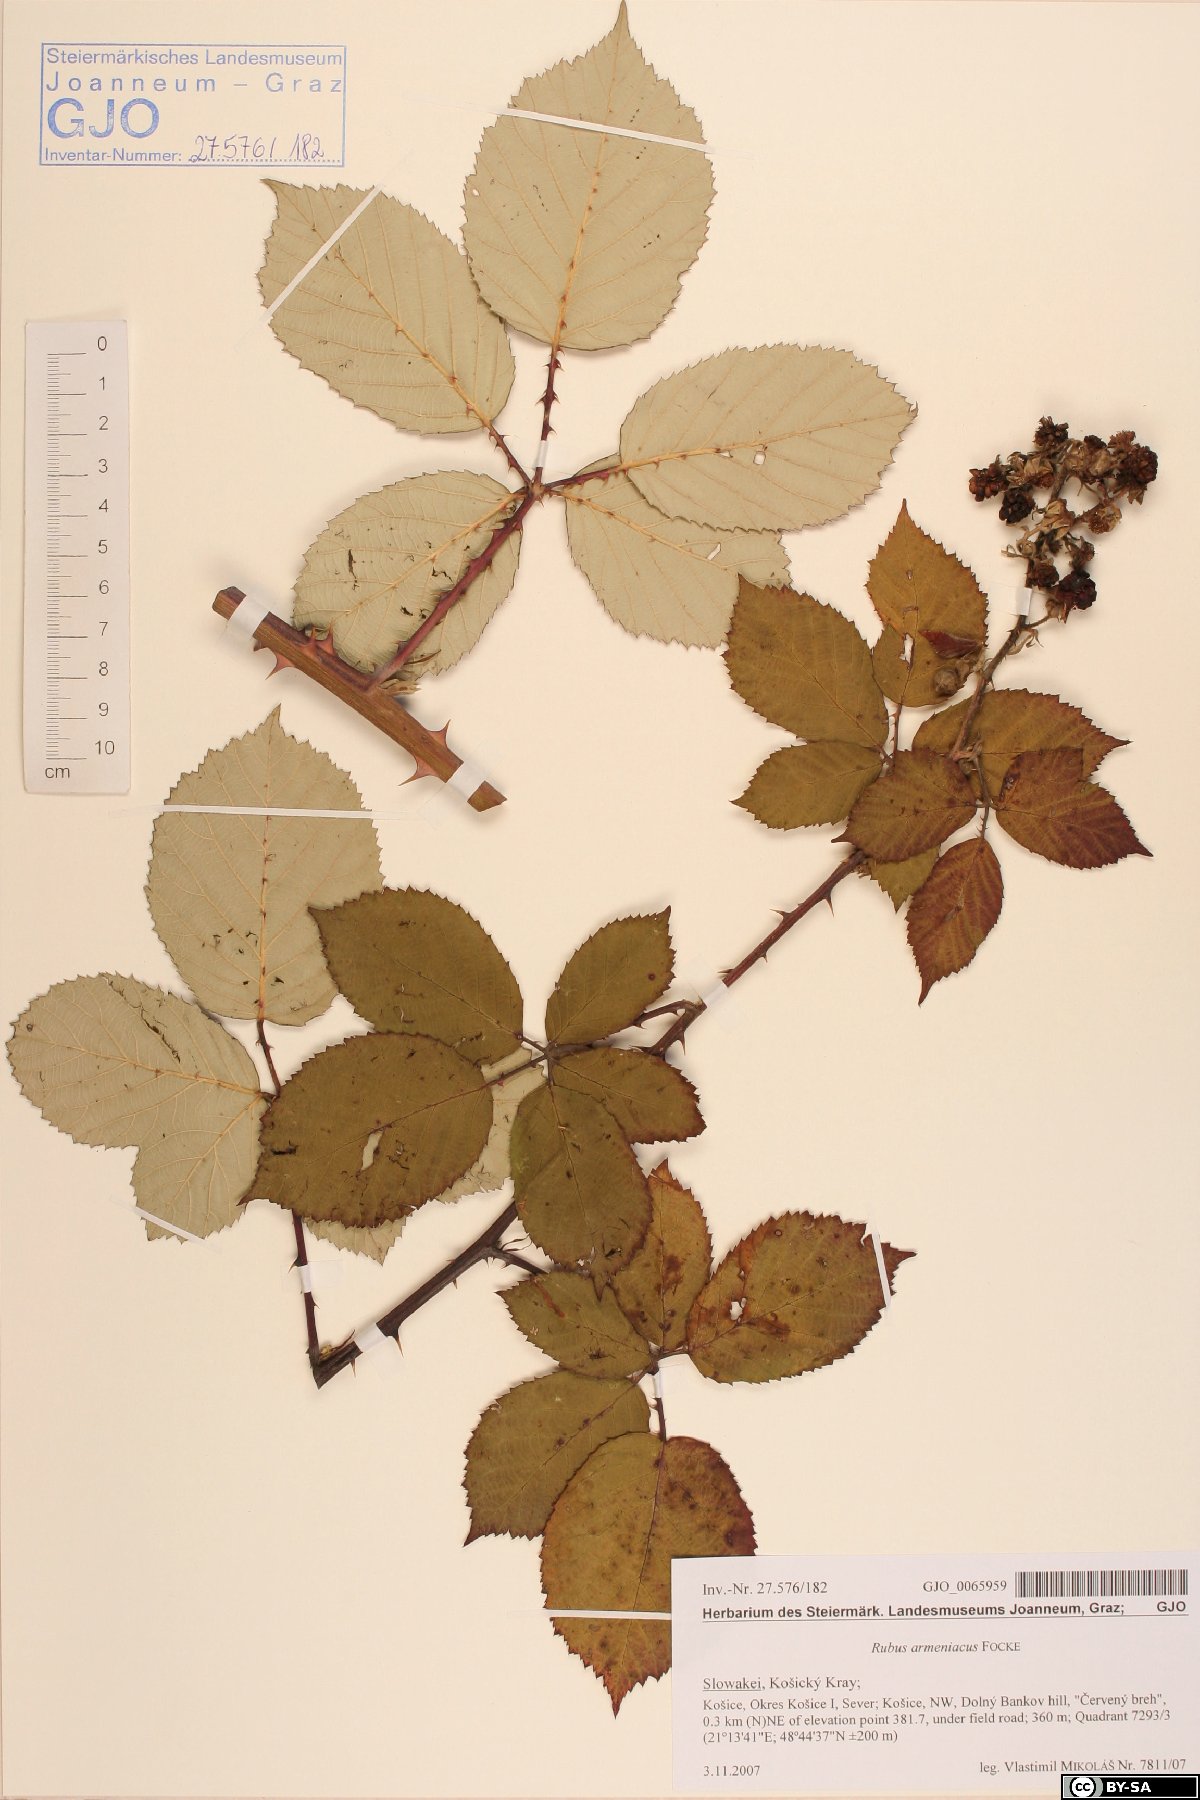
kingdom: Plantae
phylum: Tracheophyta
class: Magnoliopsida
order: Rosales
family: Rosaceae
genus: Rubus
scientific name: Rubus armeniacus
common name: Himalayan blackberry
